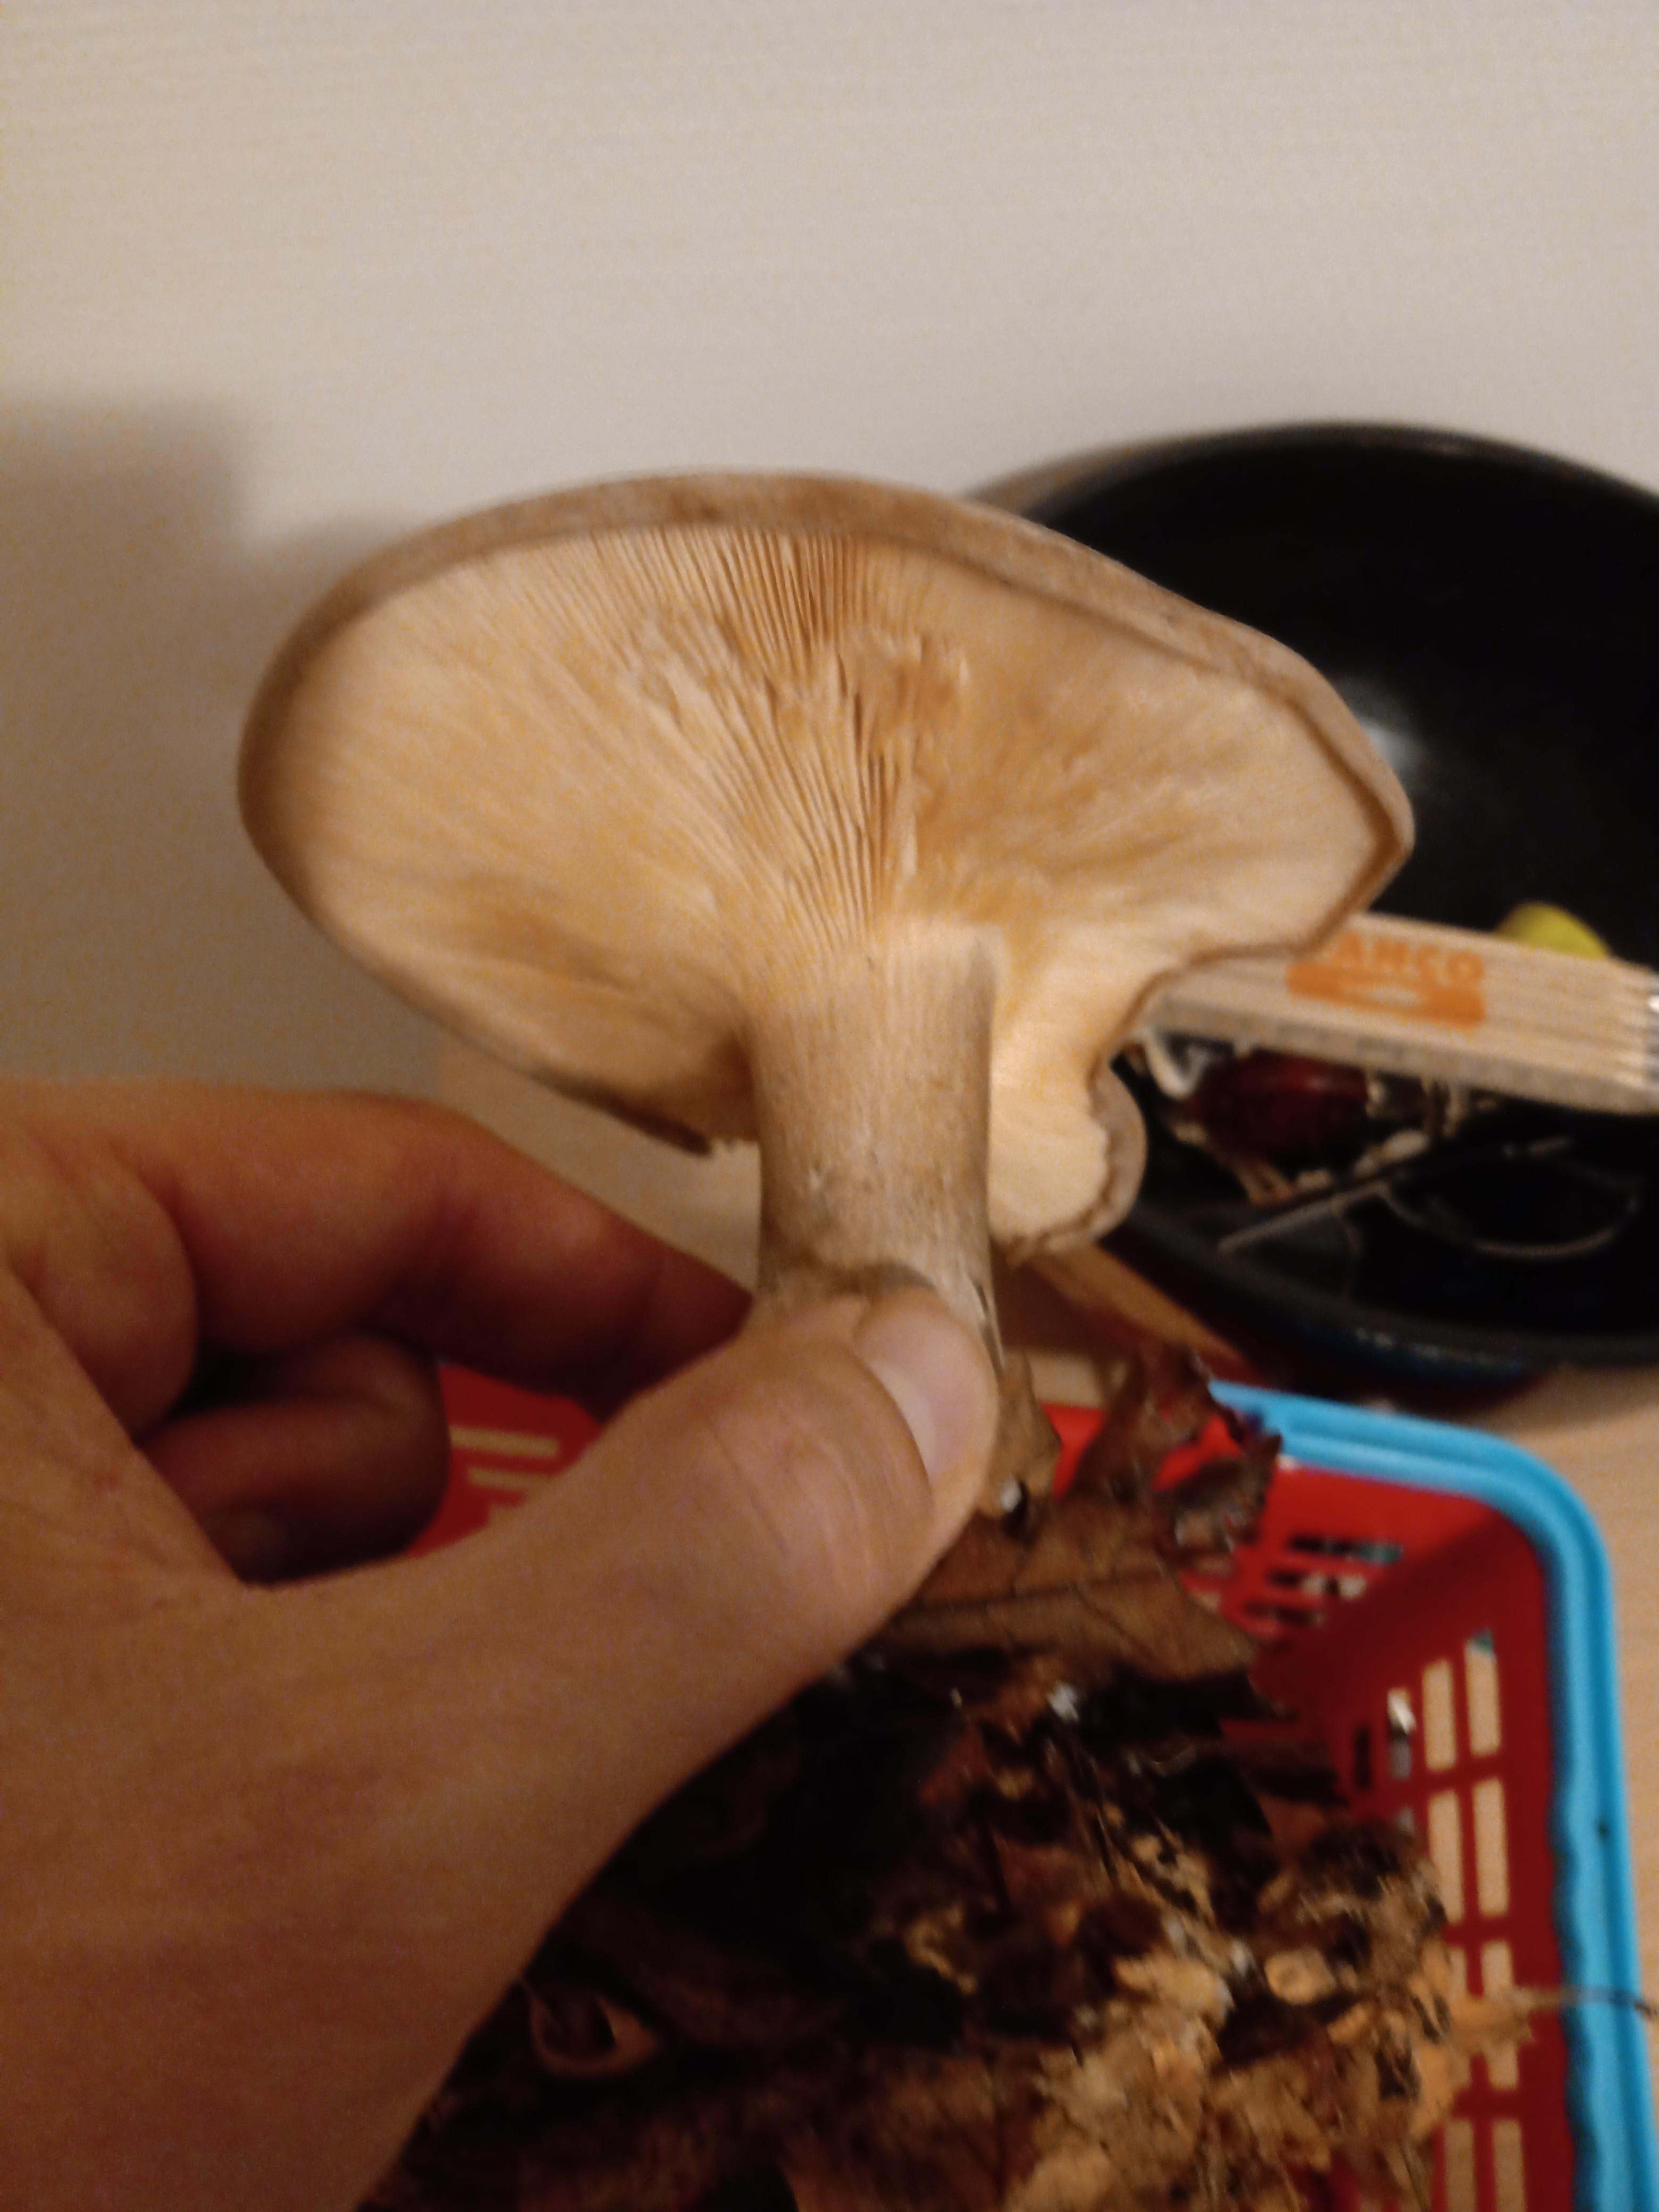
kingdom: Fungi
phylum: Basidiomycota
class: Agaricomycetes
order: Agaricales
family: Tricholomataceae
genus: Clitocybe
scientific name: Clitocybe nebularis
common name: tåge-tragthat
